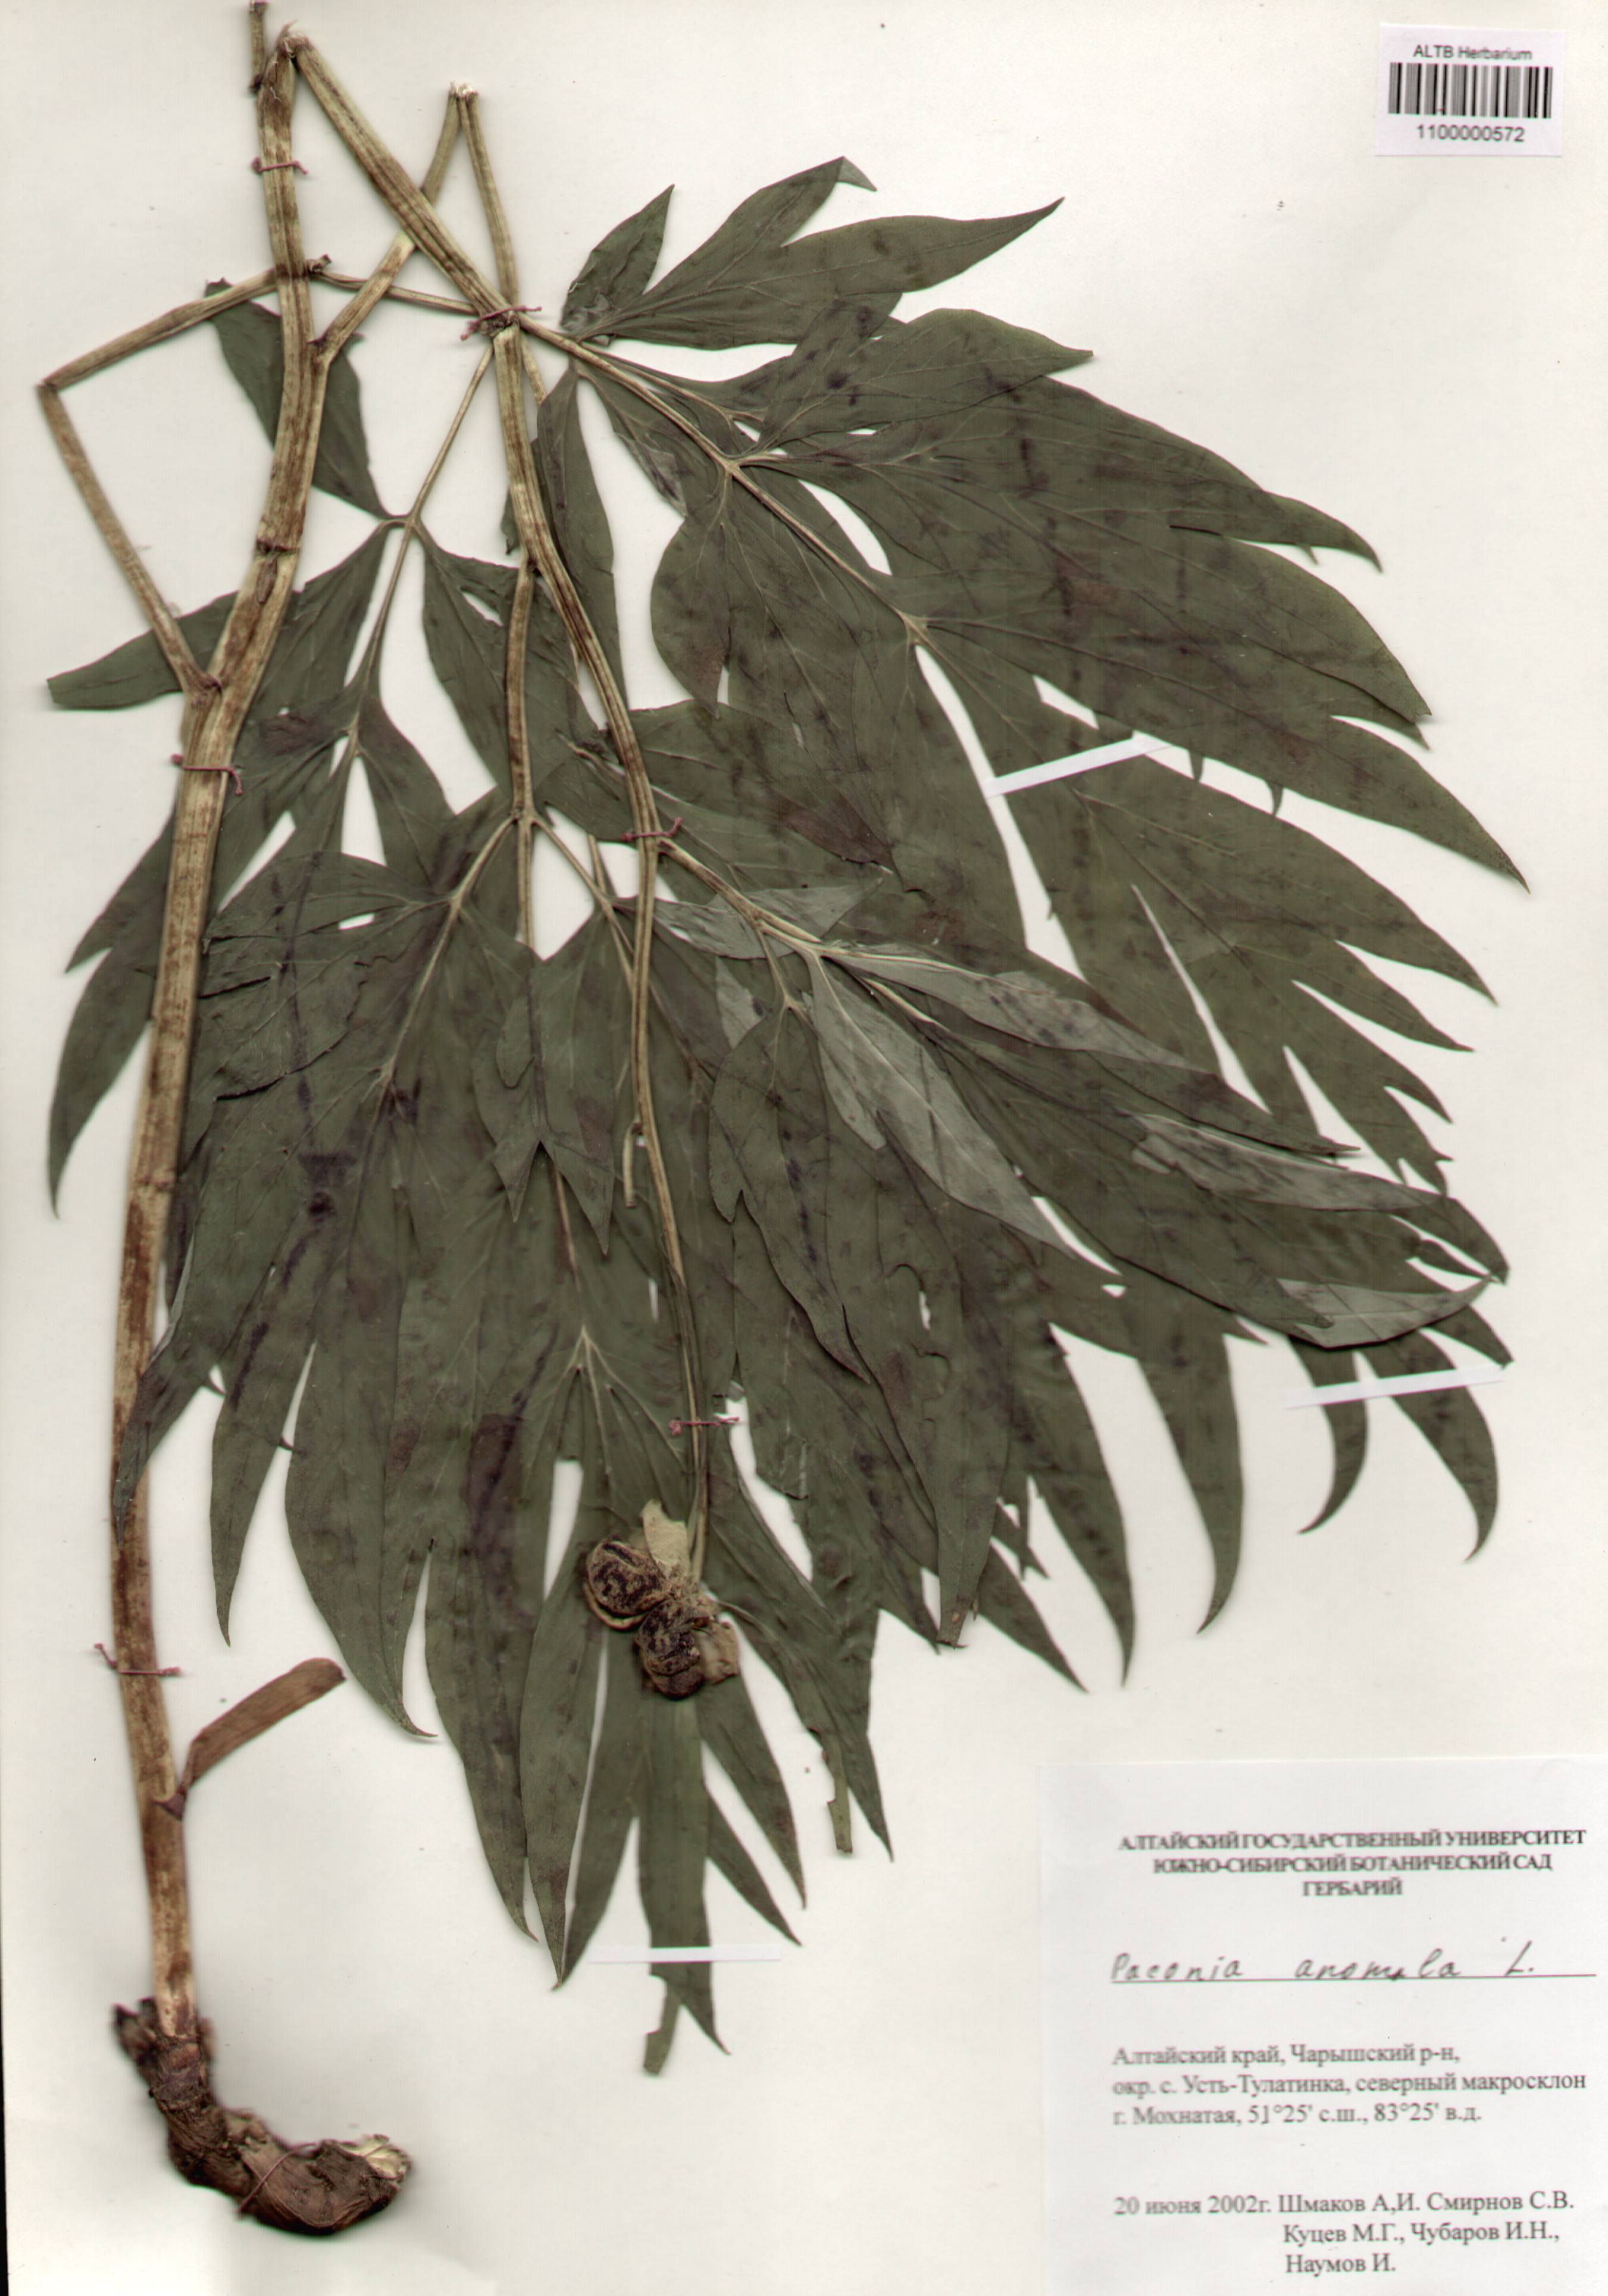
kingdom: Plantae
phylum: Tracheophyta
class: Magnoliopsida
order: Saxifragales
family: Paeoniaceae
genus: Paeonia
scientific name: Paeonia anomala
